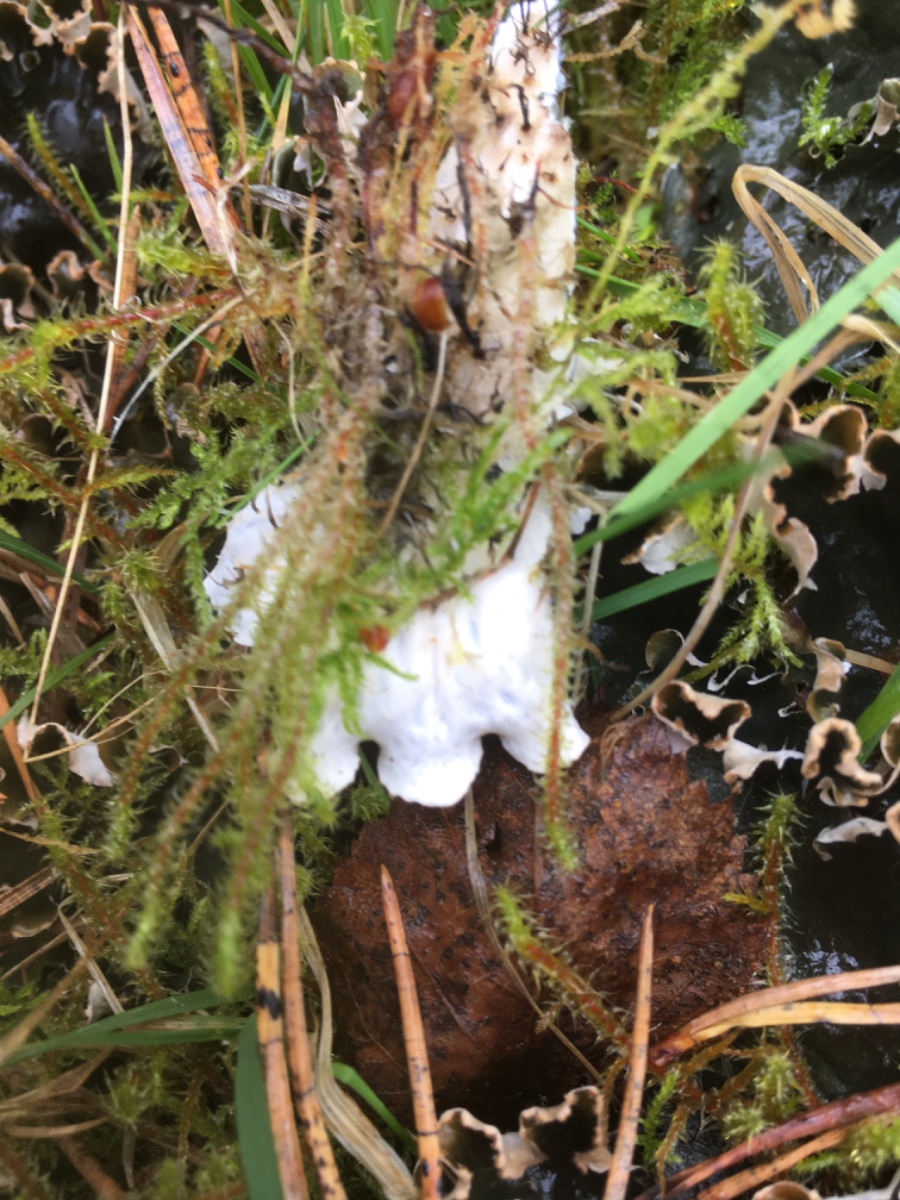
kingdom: Fungi
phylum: Ascomycota
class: Lecanoromycetes
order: Peltigerales
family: Peltigeraceae
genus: Peltigera
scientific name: Peltigera neckeri
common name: glinsende skjoldlav
